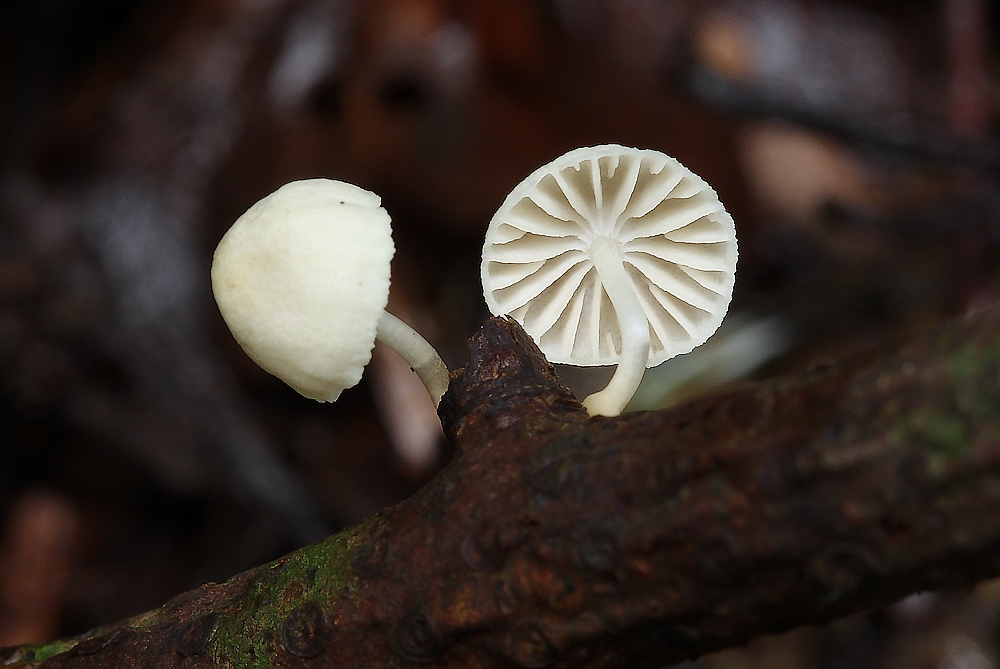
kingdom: Fungi
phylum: Basidiomycota
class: Agaricomycetes
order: Agaricales
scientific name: Agaricales
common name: champignonordenen
